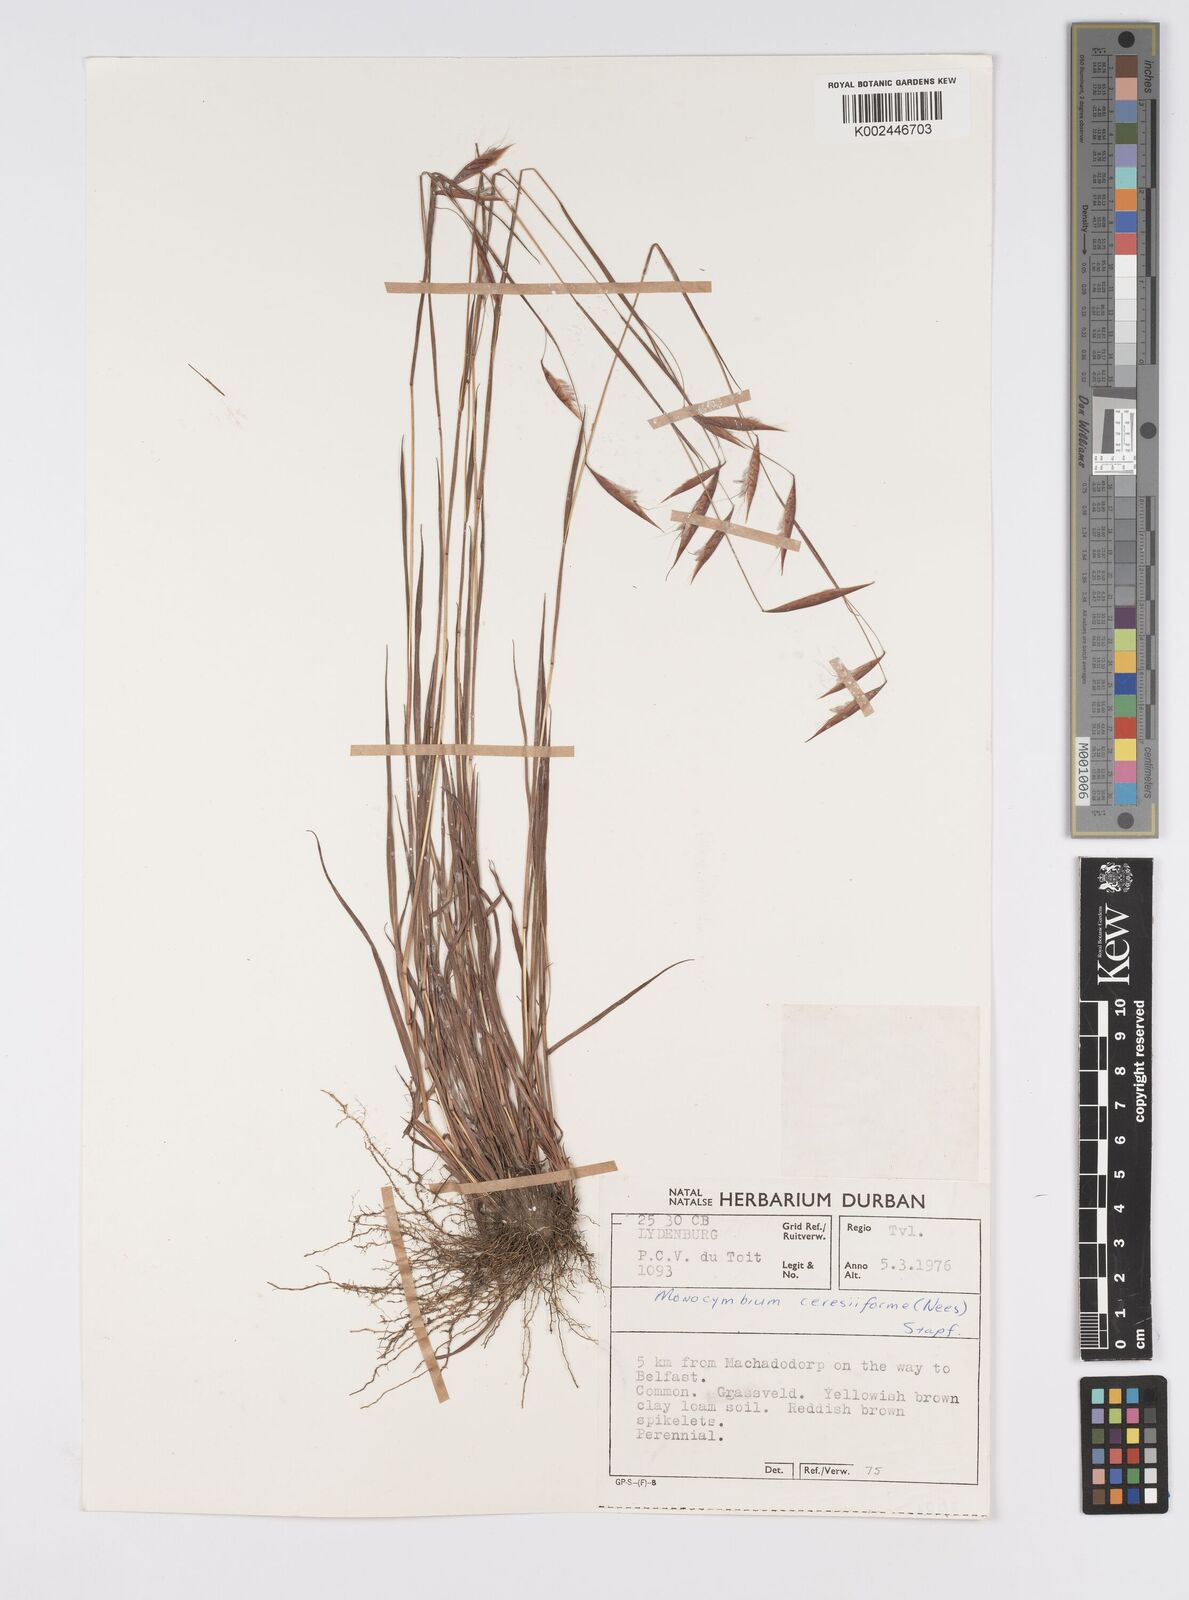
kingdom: Plantae
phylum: Tracheophyta
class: Liliopsida
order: Poales
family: Poaceae
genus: Monocymbium
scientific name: Monocymbium ceresiiforme
